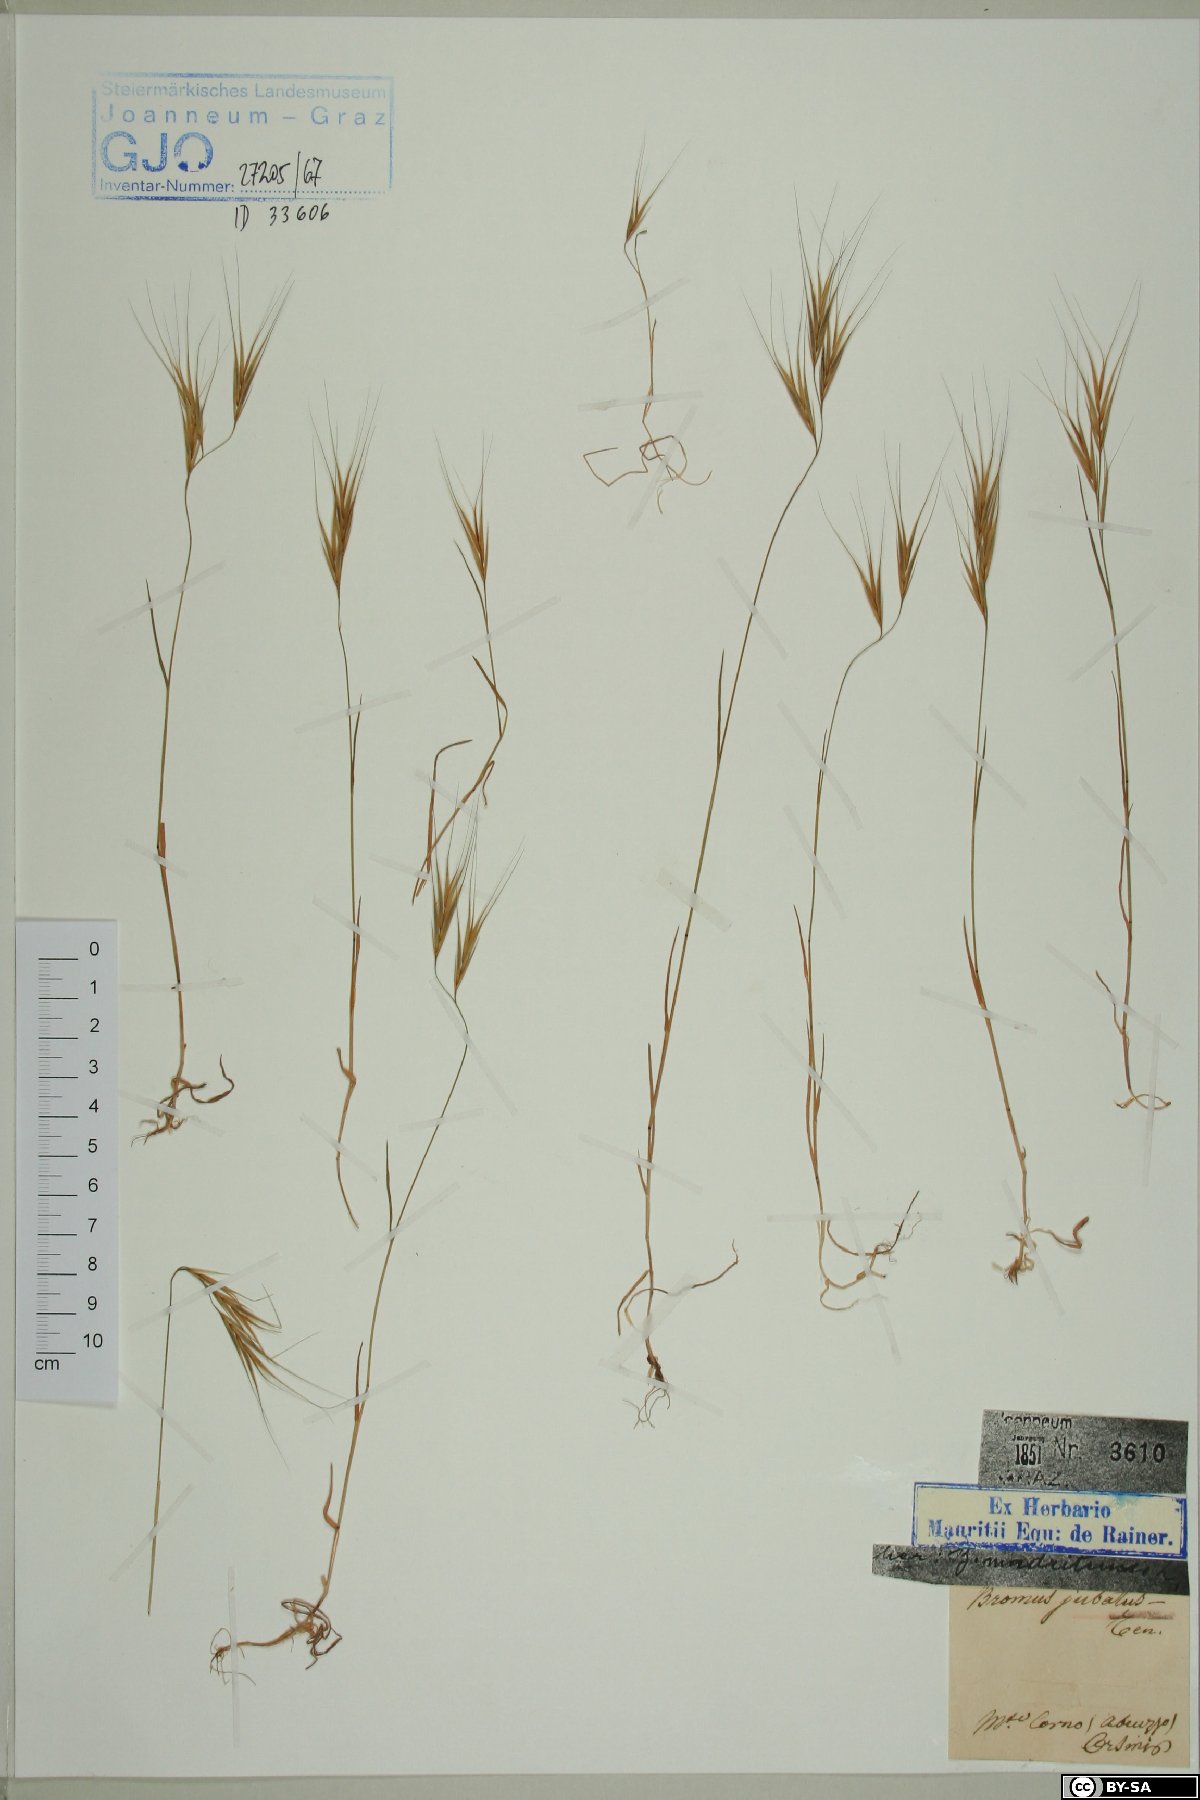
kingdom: Plantae
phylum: Tracheophyta
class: Liliopsida
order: Poales
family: Poaceae
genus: Bromus
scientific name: Bromus sterilis
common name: Poverty brome
